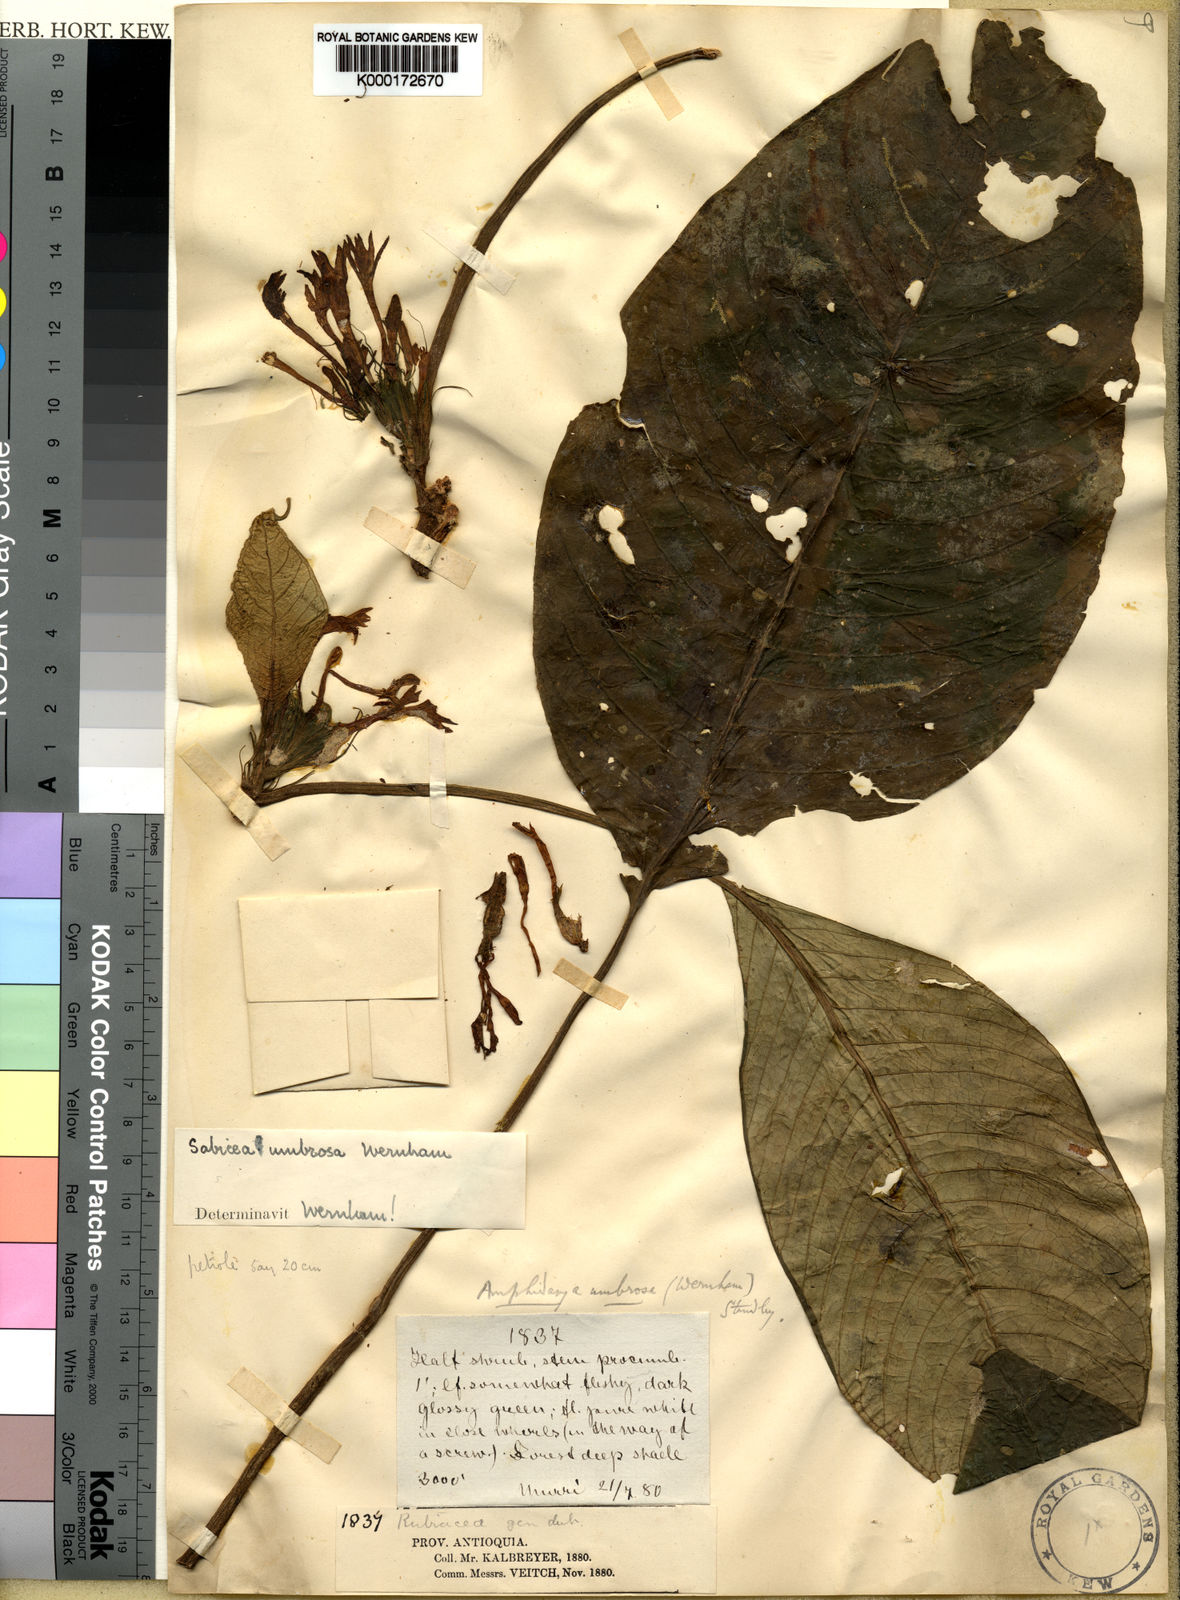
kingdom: Plantae
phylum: Tracheophyta
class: Magnoliopsida
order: Gentianales
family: Rubiaceae
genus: Amphidasya
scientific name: Amphidasya umbrosa
